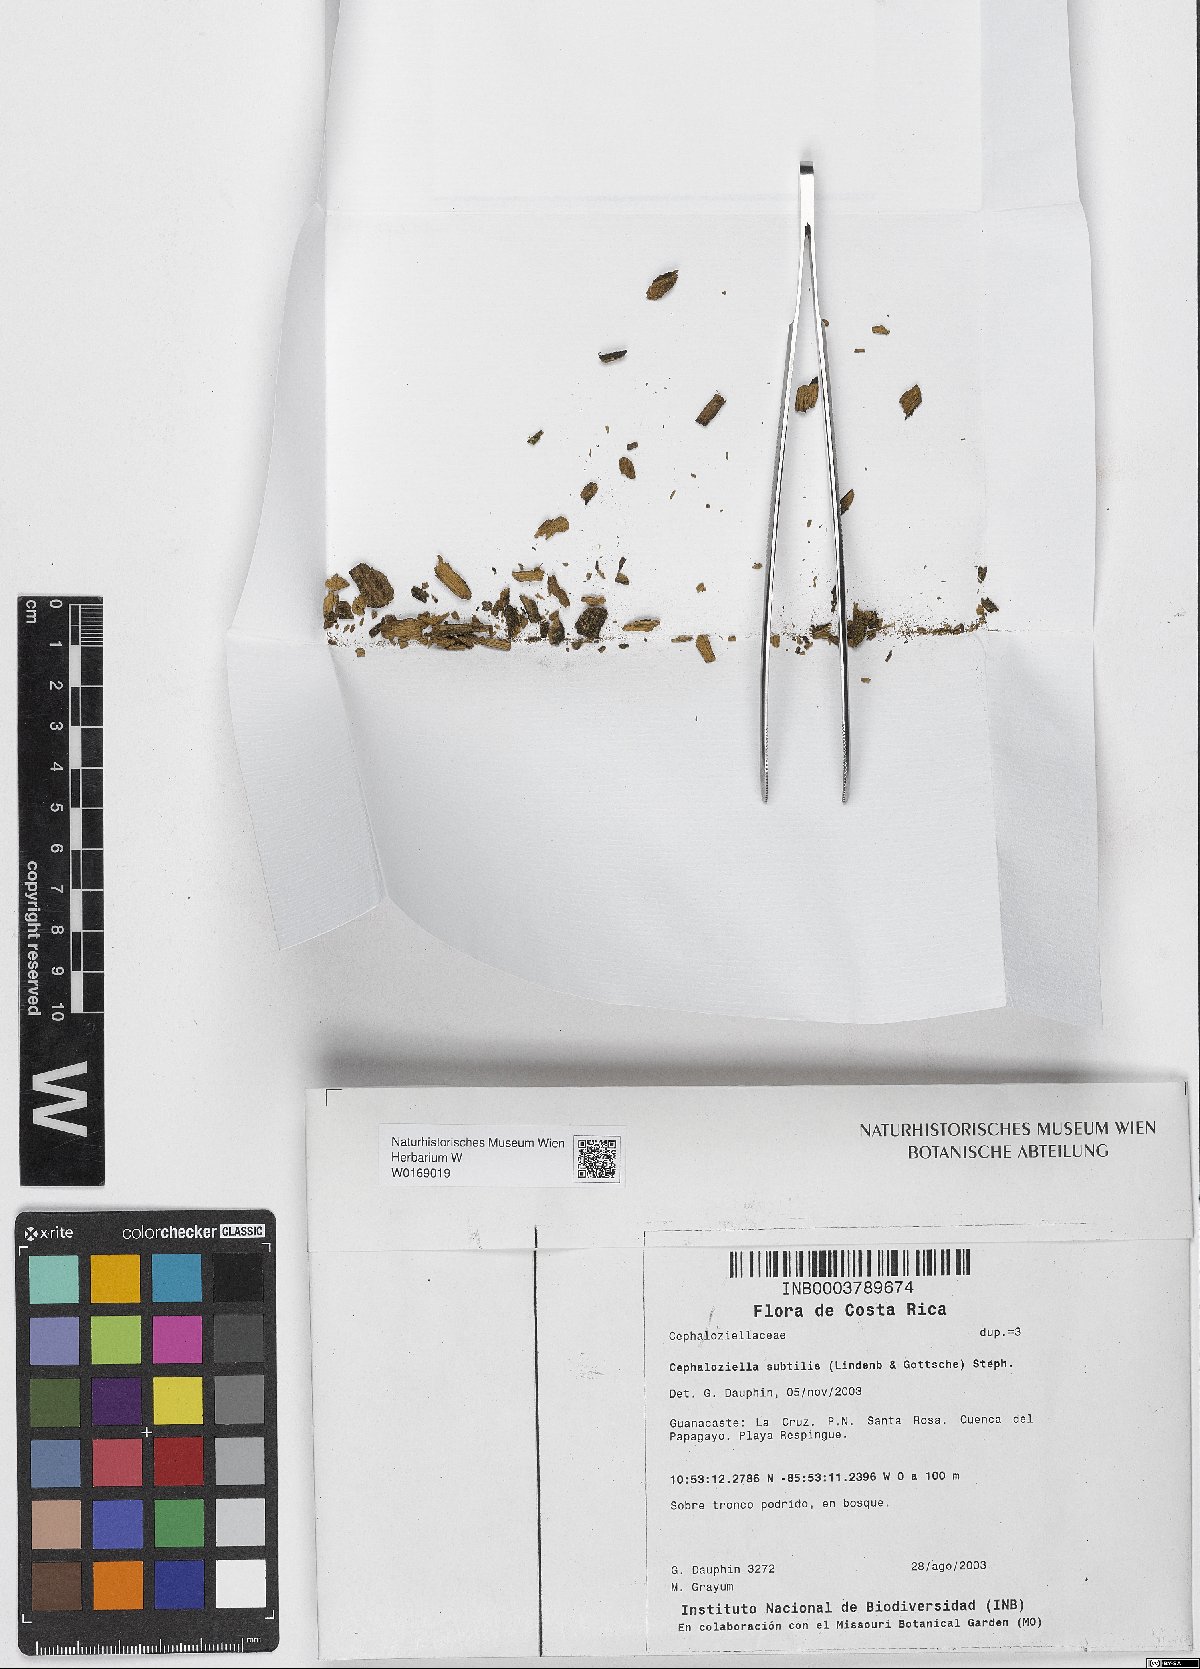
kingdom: Plantae
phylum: Marchantiophyta
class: Jungermanniopsida
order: Jungermanniales
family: Cephaloziellaceae
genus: Cephaloziella
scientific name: Cephaloziella subtilis
